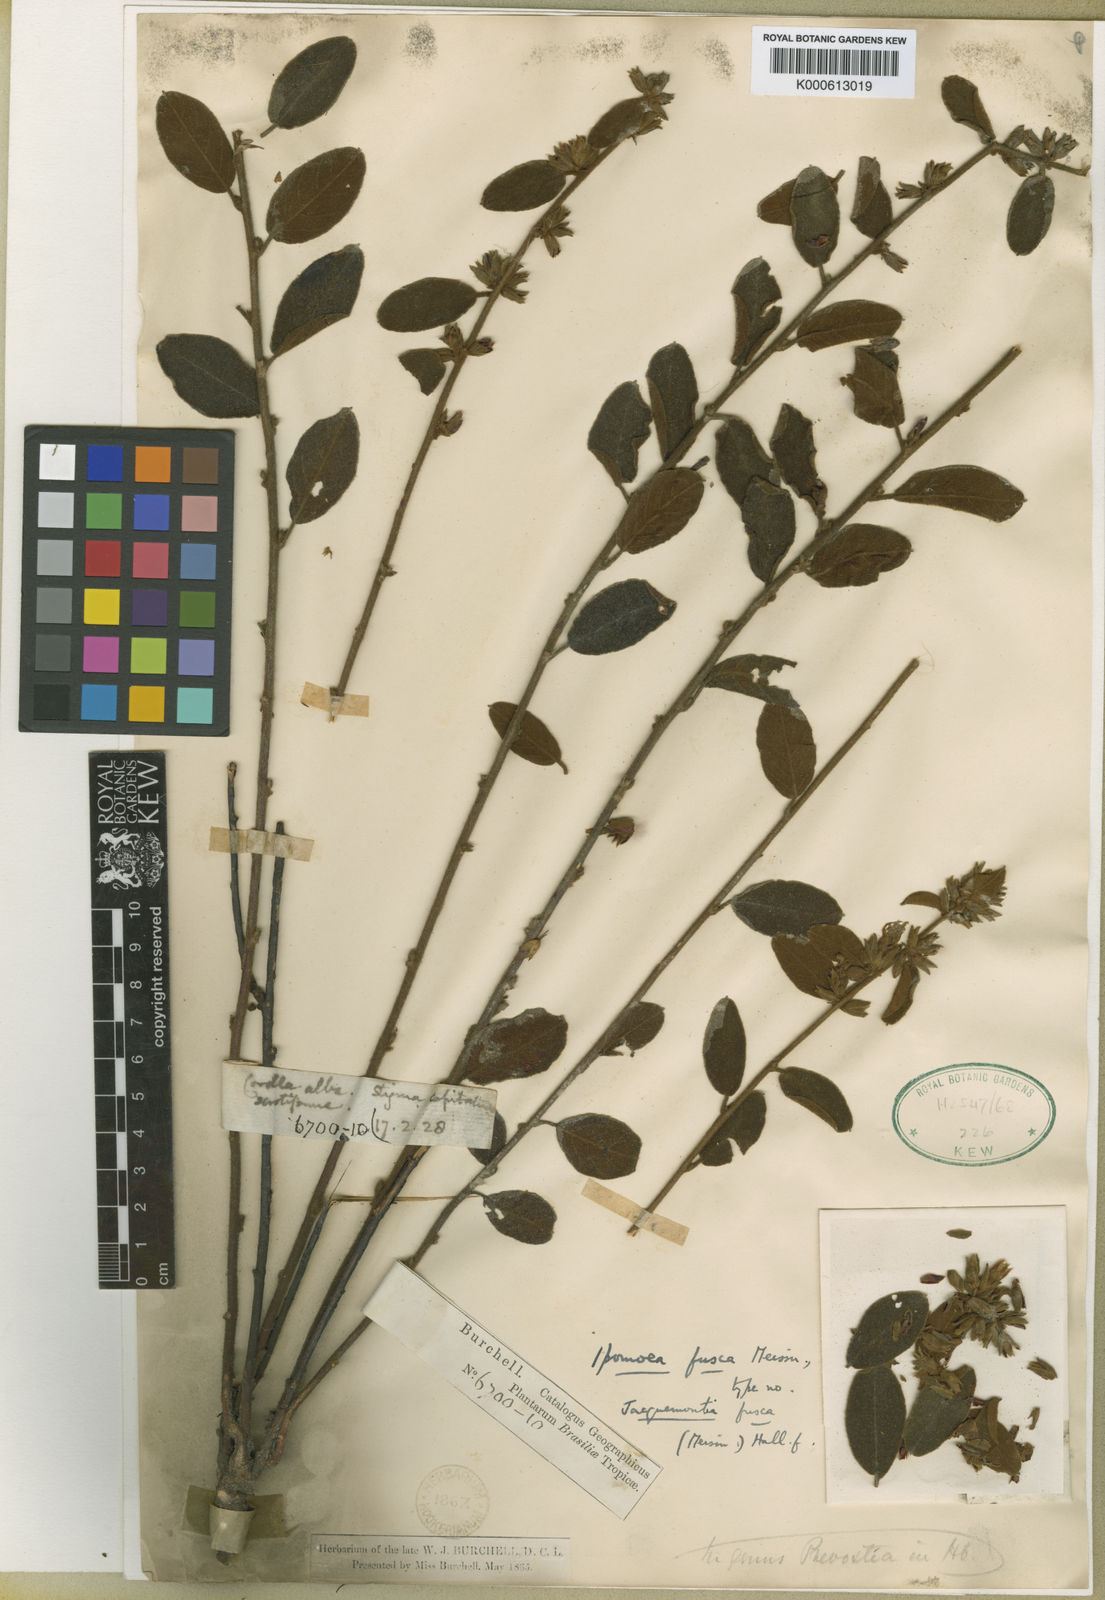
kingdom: Plantae
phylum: Tracheophyta
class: Magnoliopsida
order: Solanales
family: Convolvulaceae
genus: Jacquemontia
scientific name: Jacquemontia fusca
